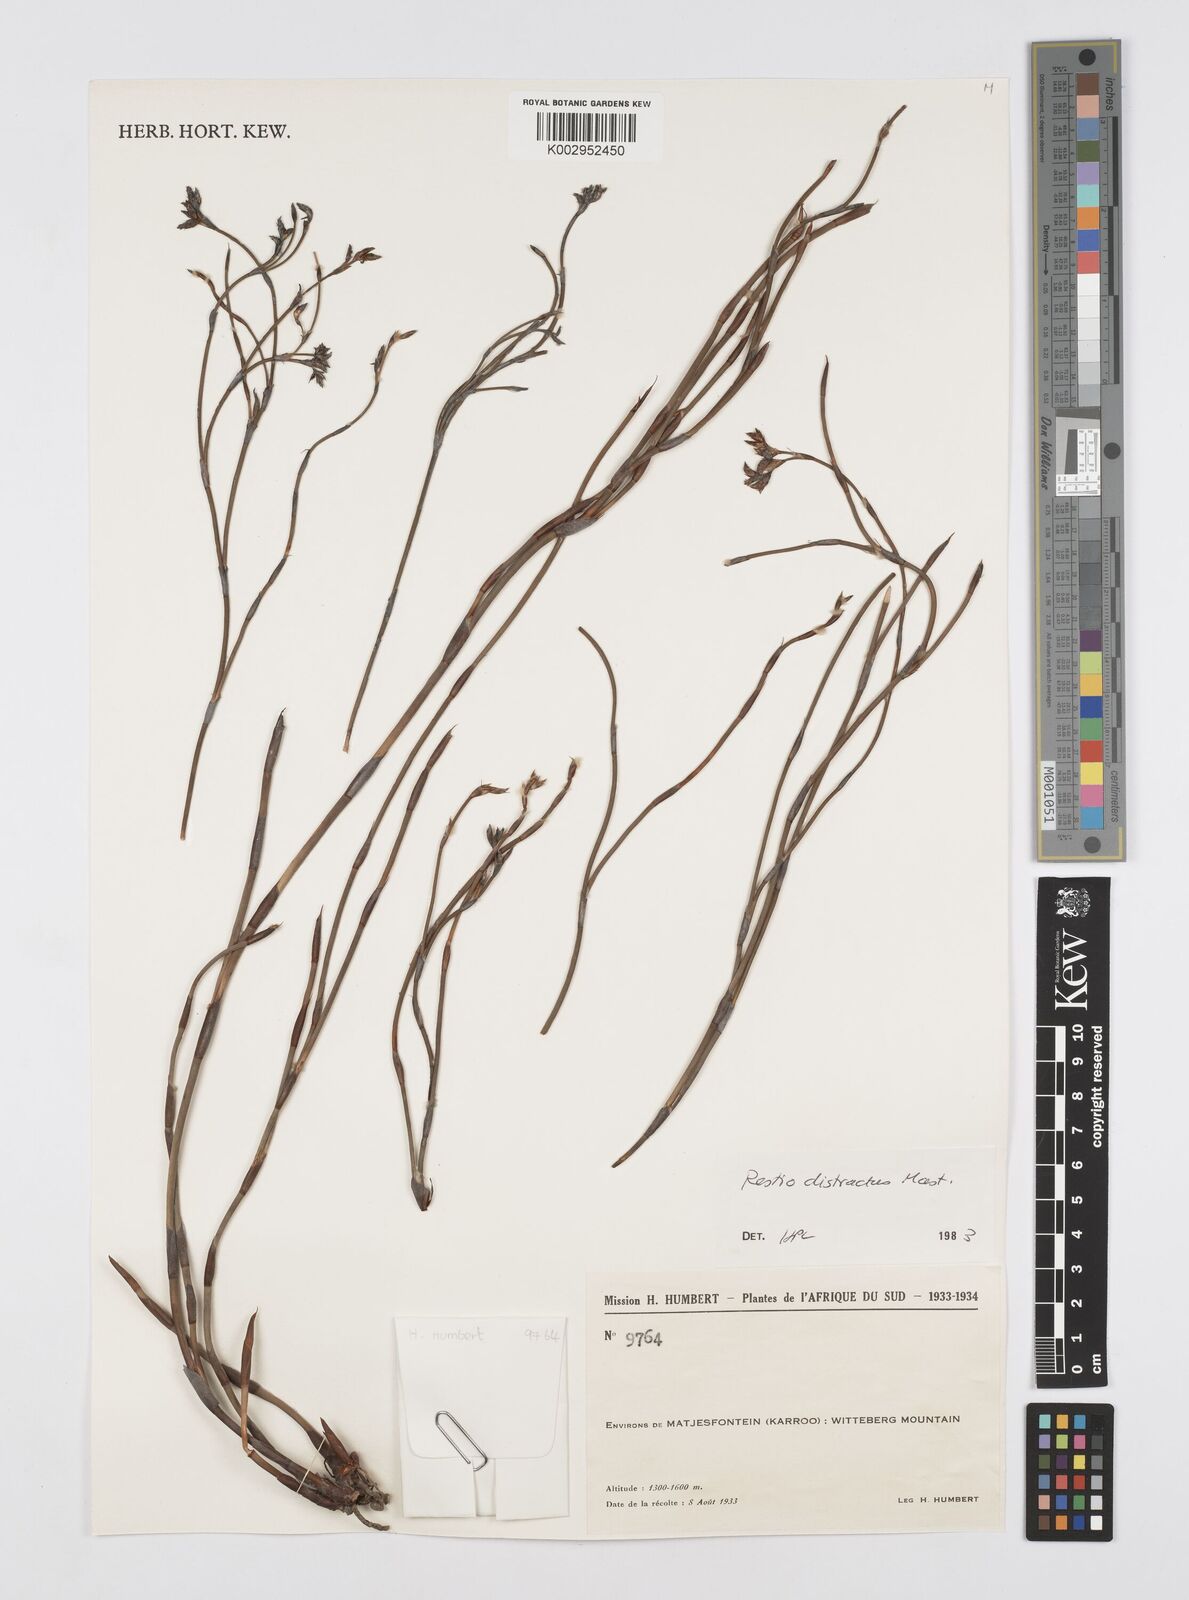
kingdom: Plantae
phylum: Tracheophyta
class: Liliopsida
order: Poales
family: Restionaceae
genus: Restio
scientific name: Restio distractus
